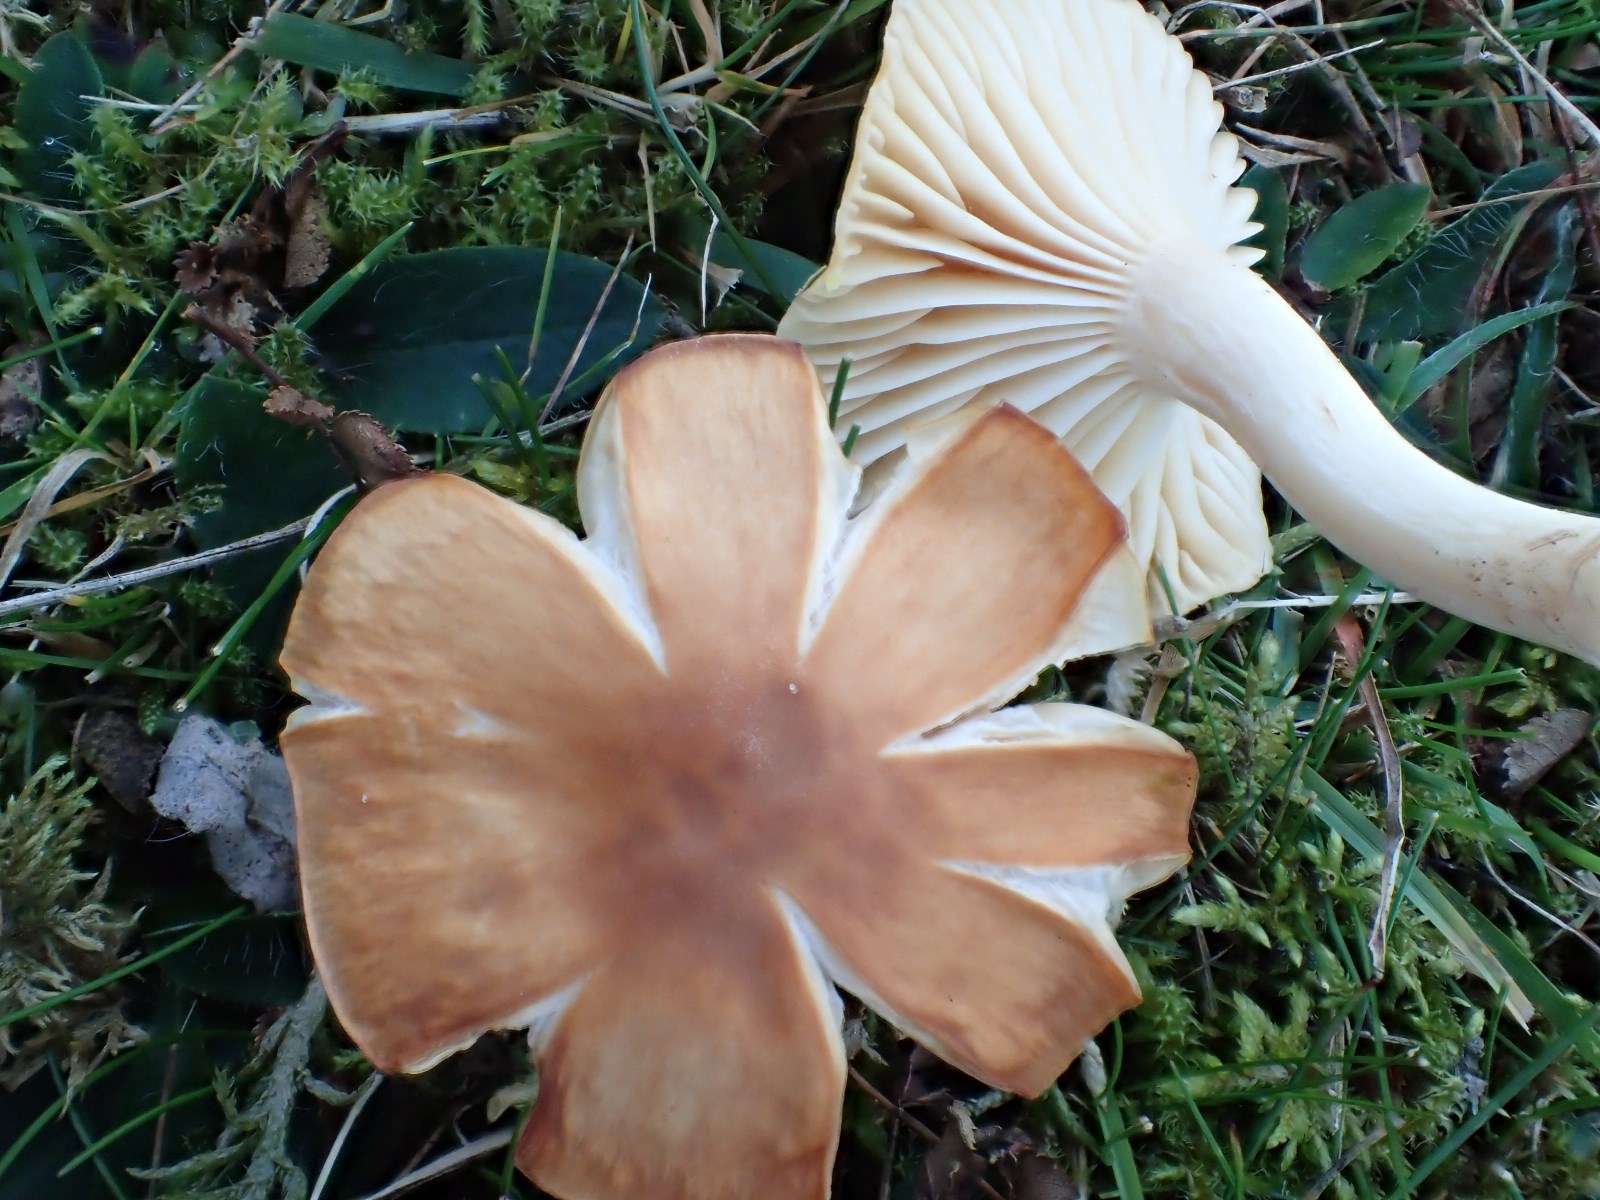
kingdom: Fungi
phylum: Basidiomycota
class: Agaricomycetes
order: Agaricales
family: Hygrophoraceae
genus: Cuphophyllus
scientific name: Cuphophyllus pratensis
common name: eng-vokshat
